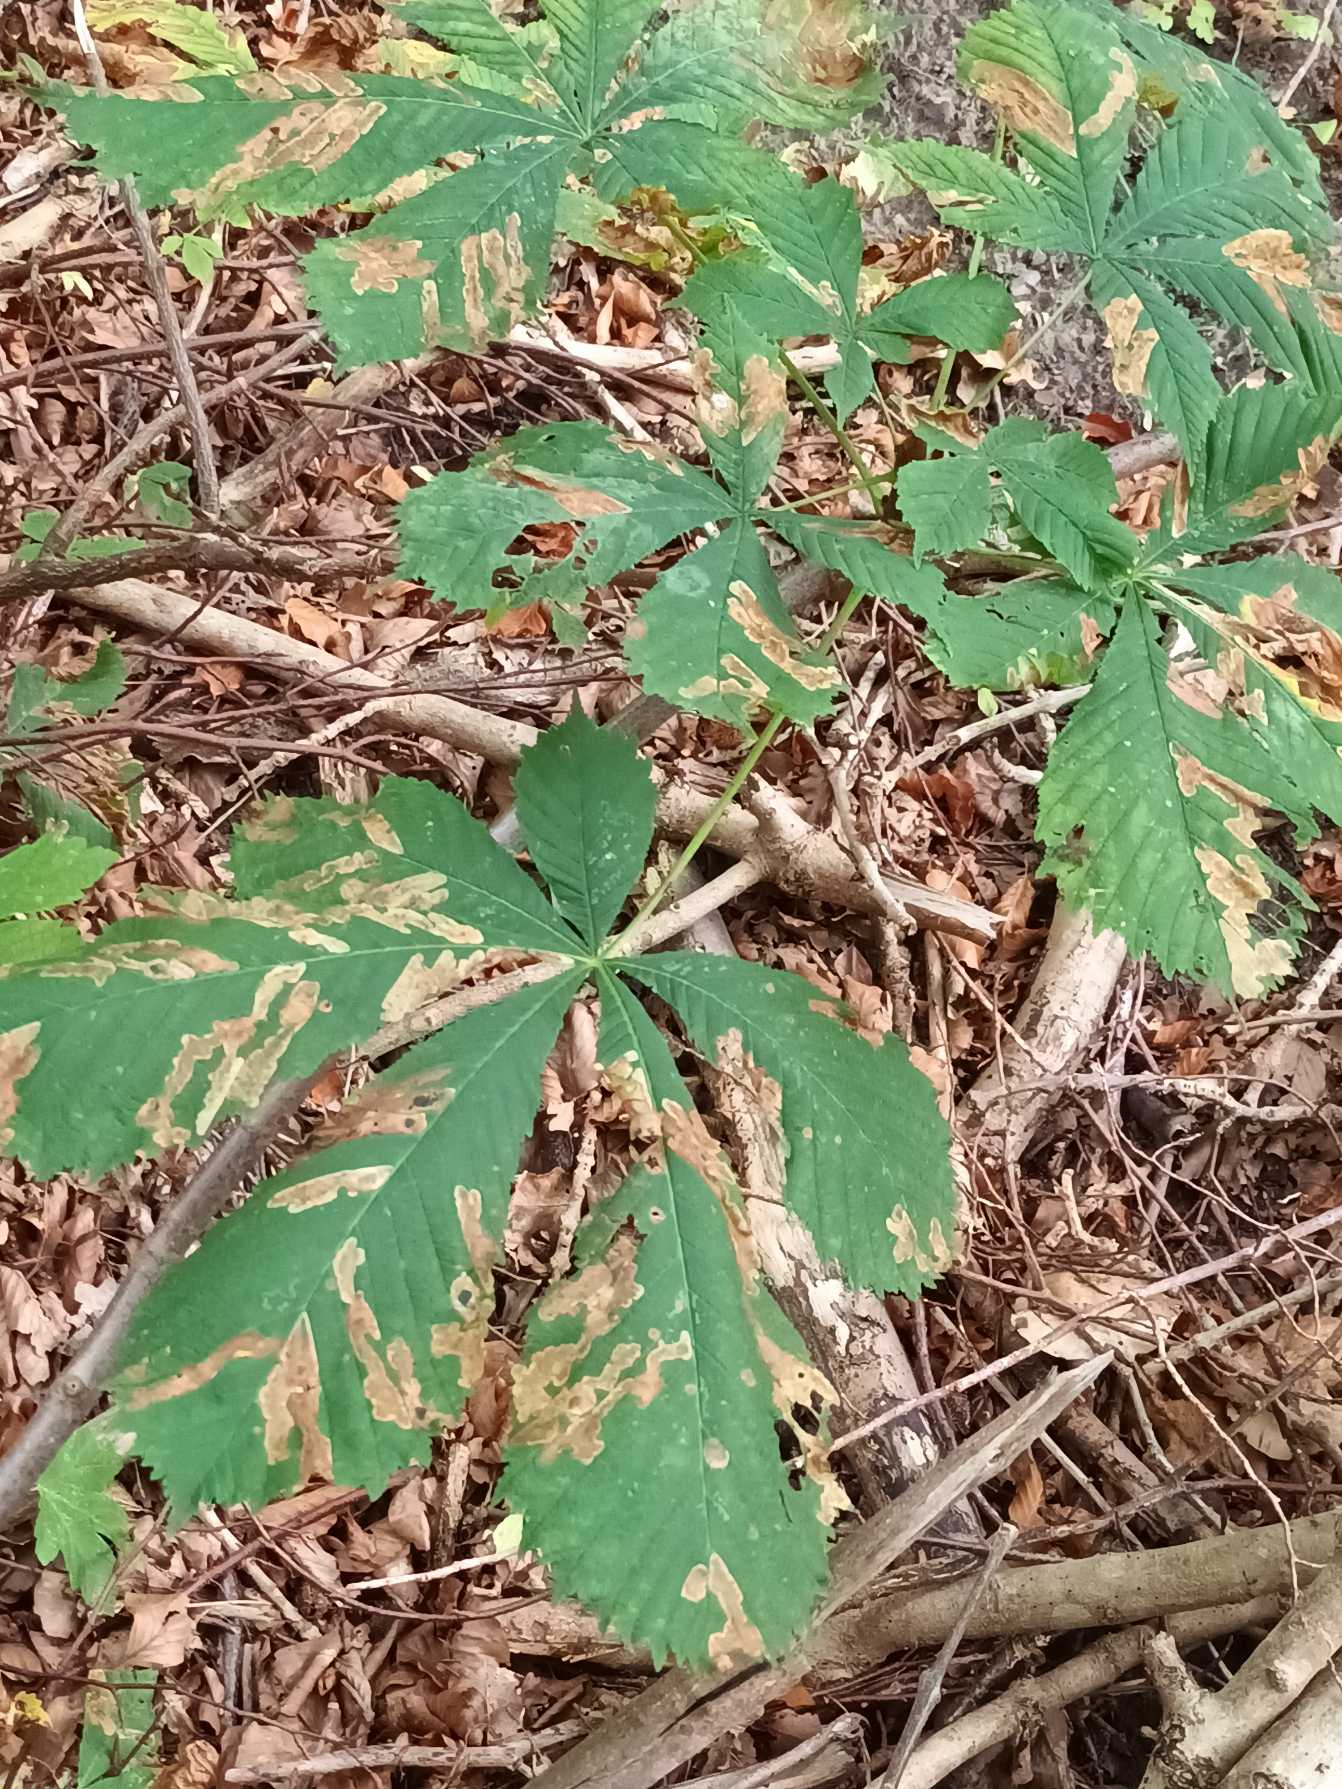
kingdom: Plantae
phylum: Tracheophyta
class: Magnoliopsida
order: Sapindales
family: Sapindaceae
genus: Aesculus
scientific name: Aesculus hippocastanum
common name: Hestekastanie
